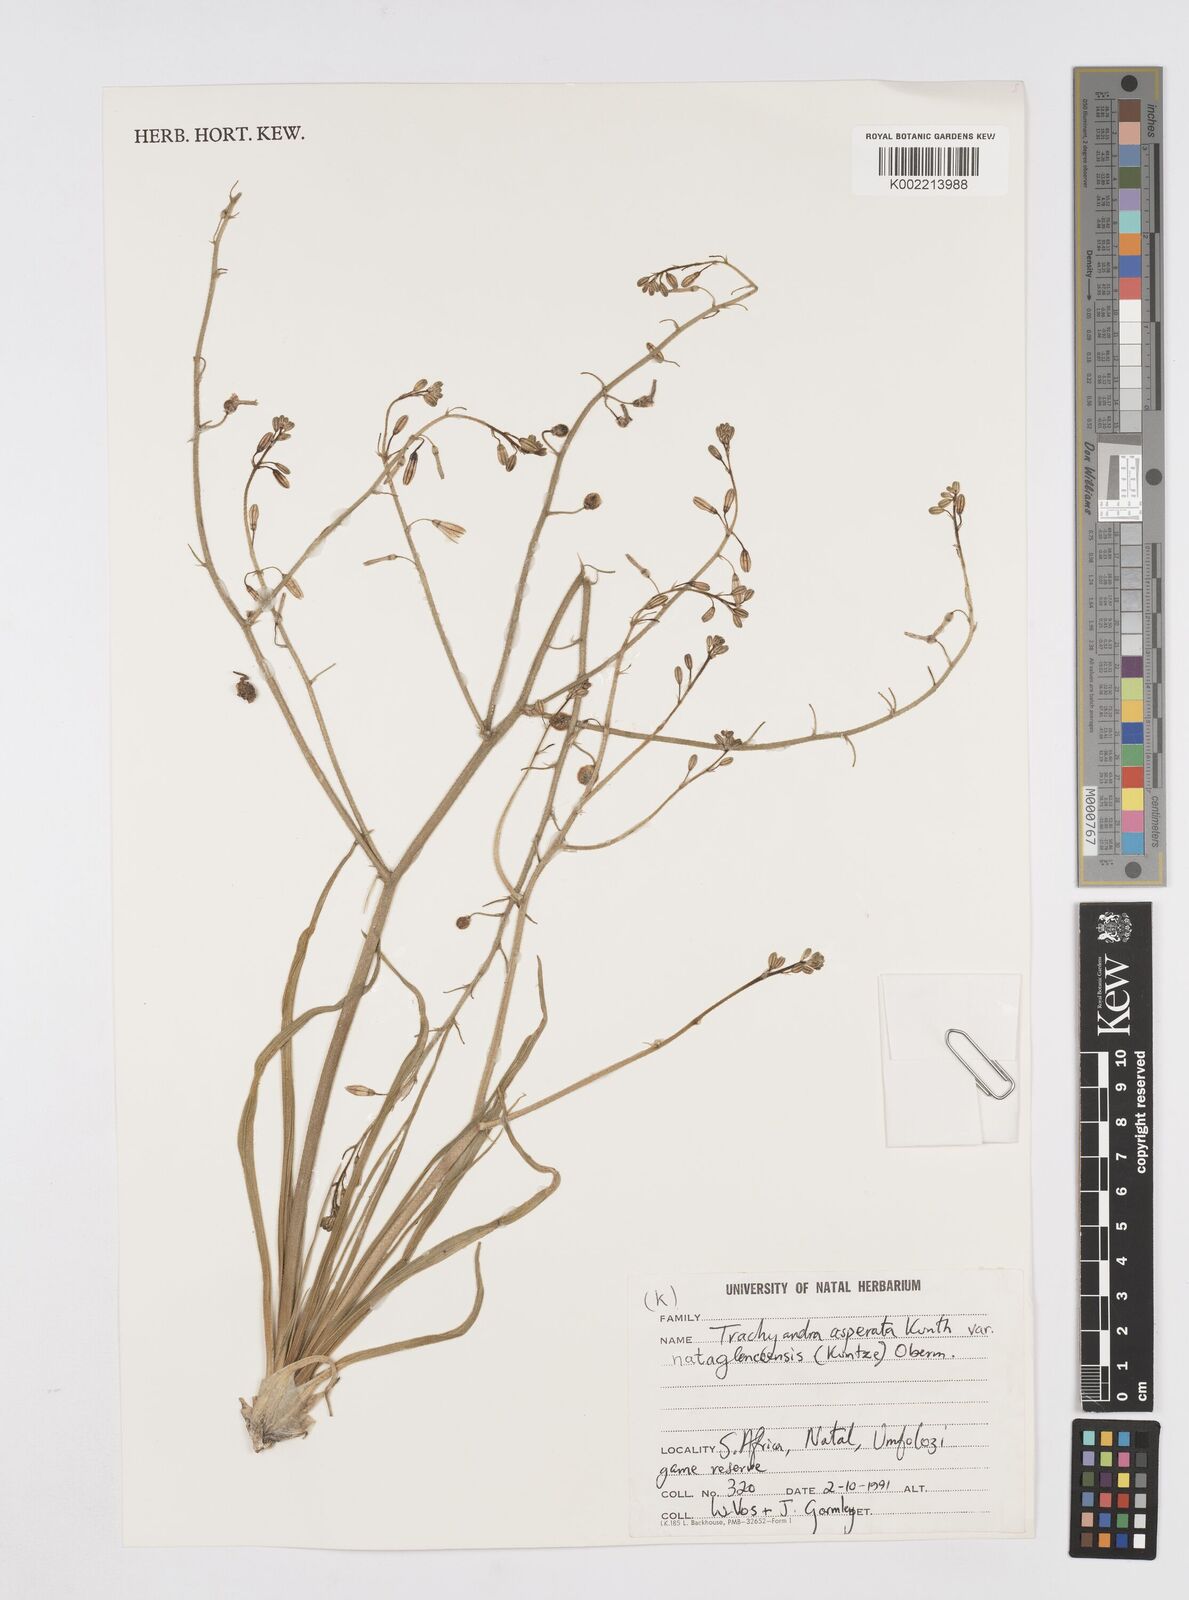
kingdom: Plantae
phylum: Tracheophyta
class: Liliopsida
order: Asparagales
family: Asphodelaceae
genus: Trachyandra
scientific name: Trachyandra asperata
